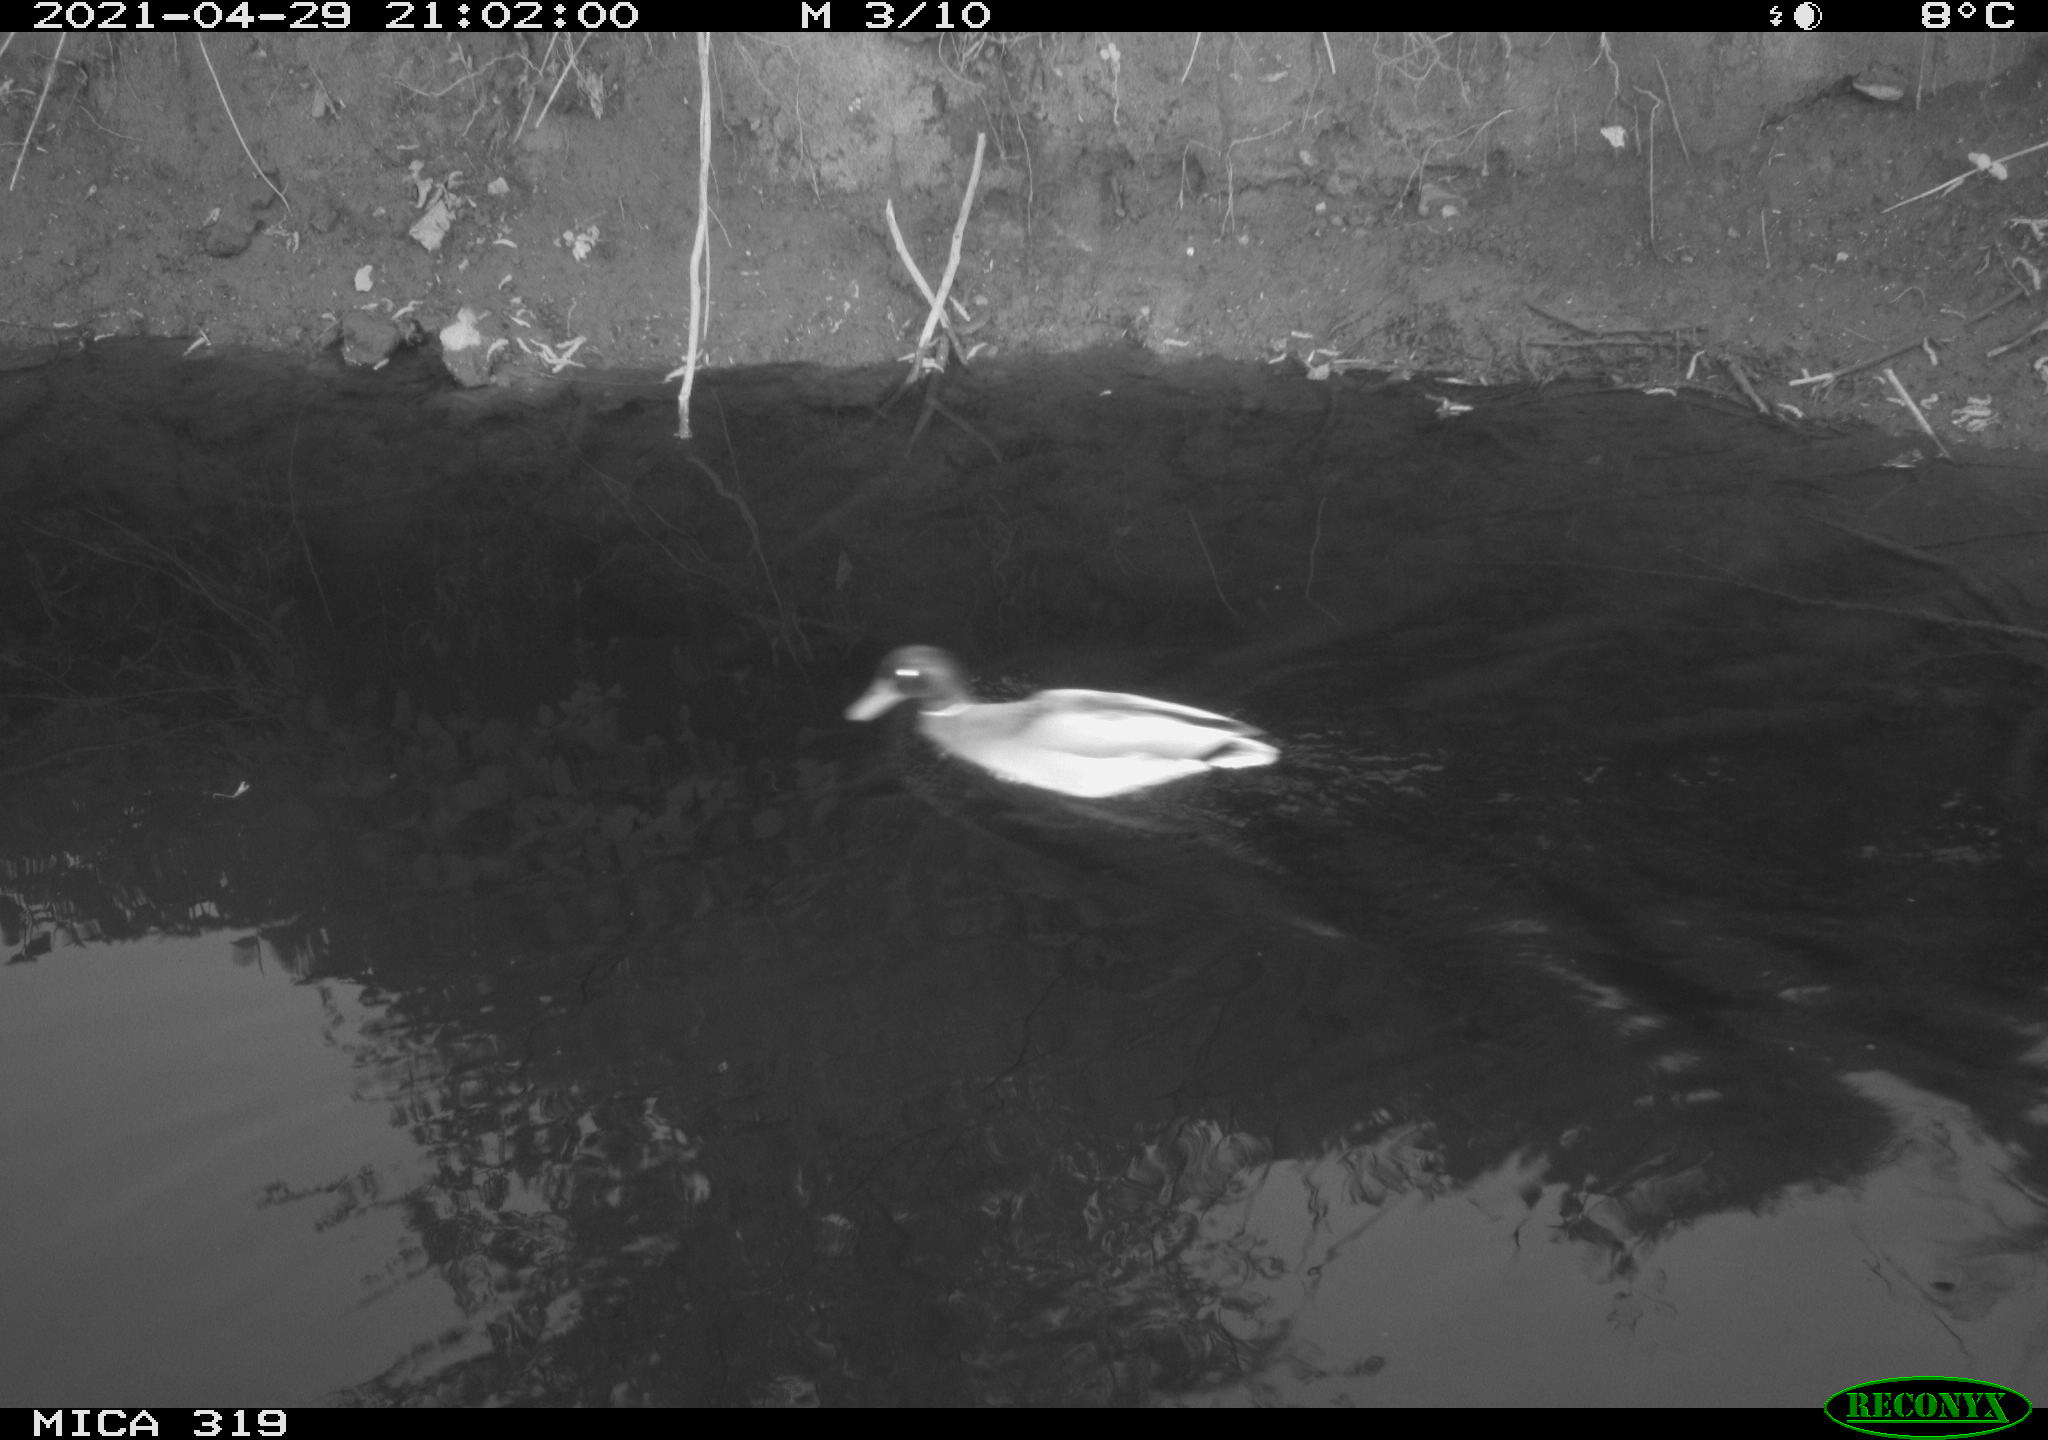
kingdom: Animalia
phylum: Chordata
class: Aves
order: Anseriformes
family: Anatidae
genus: Anas
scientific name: Anas platyrhynchos
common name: Mallard
